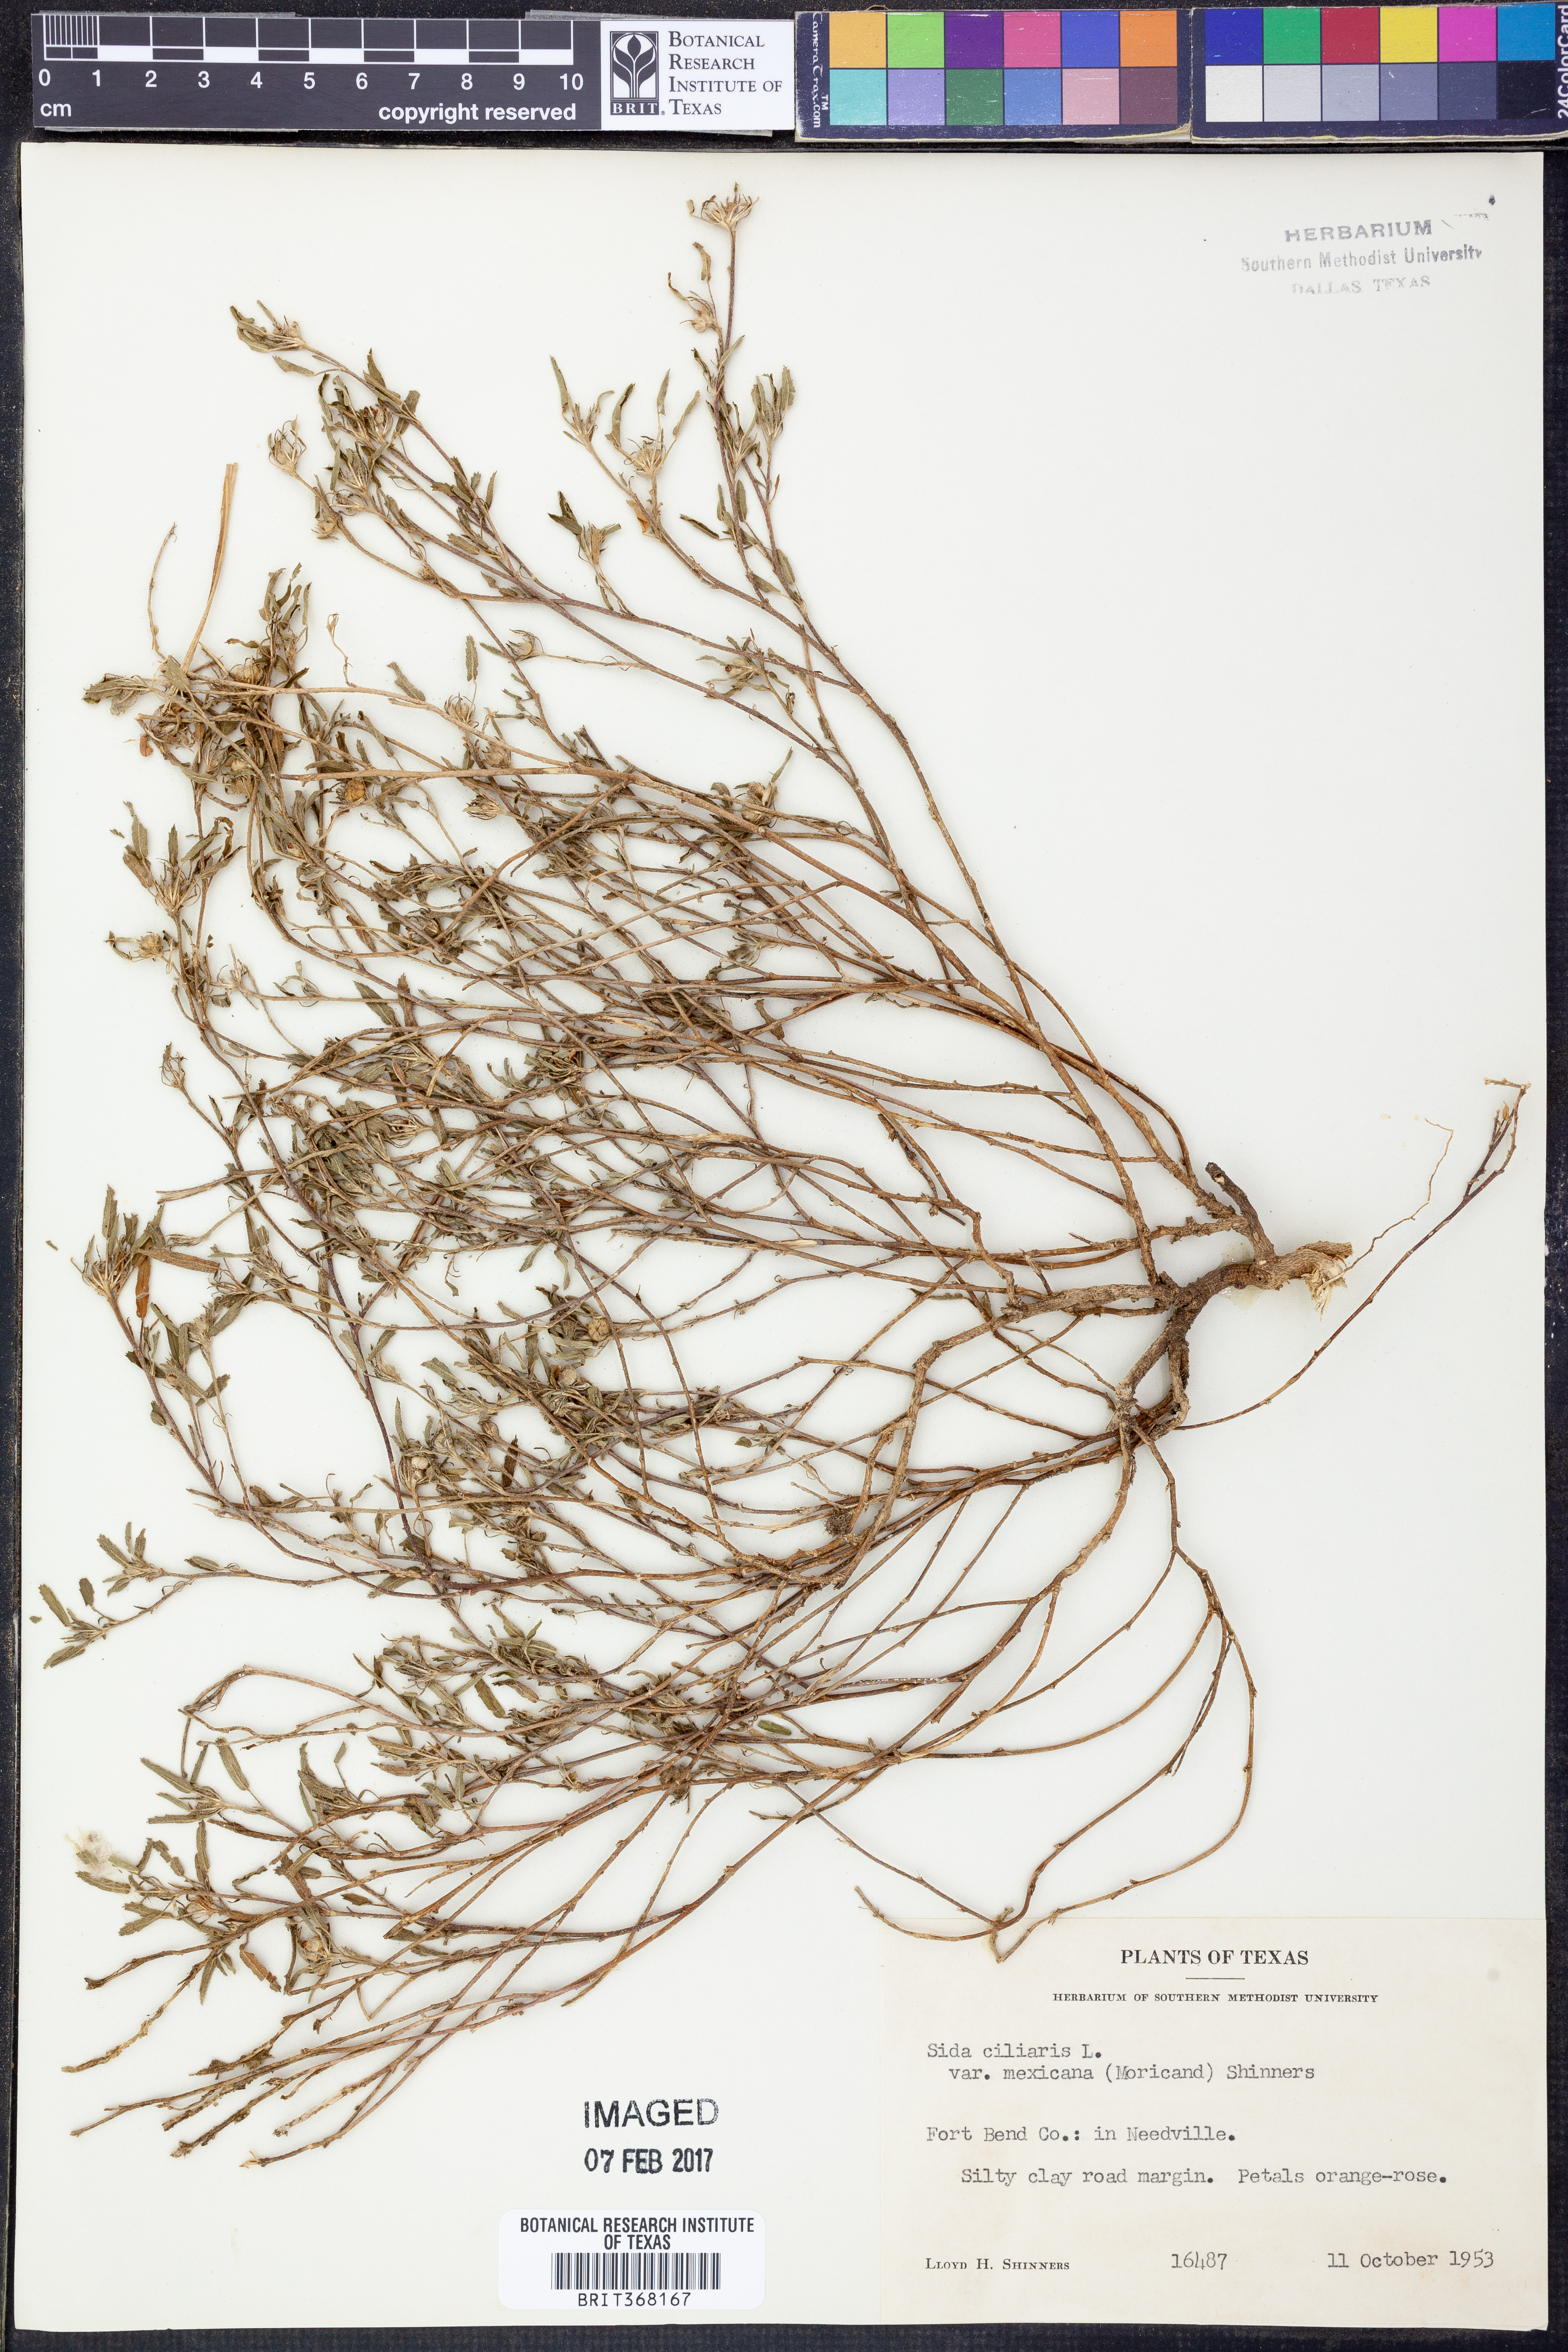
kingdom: Plantae
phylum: Tracheophyta
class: Magnoliopsida
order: Malvales
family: Malvaceae
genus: Sida
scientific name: Sida ciliaris
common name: Bracted fanpetals
